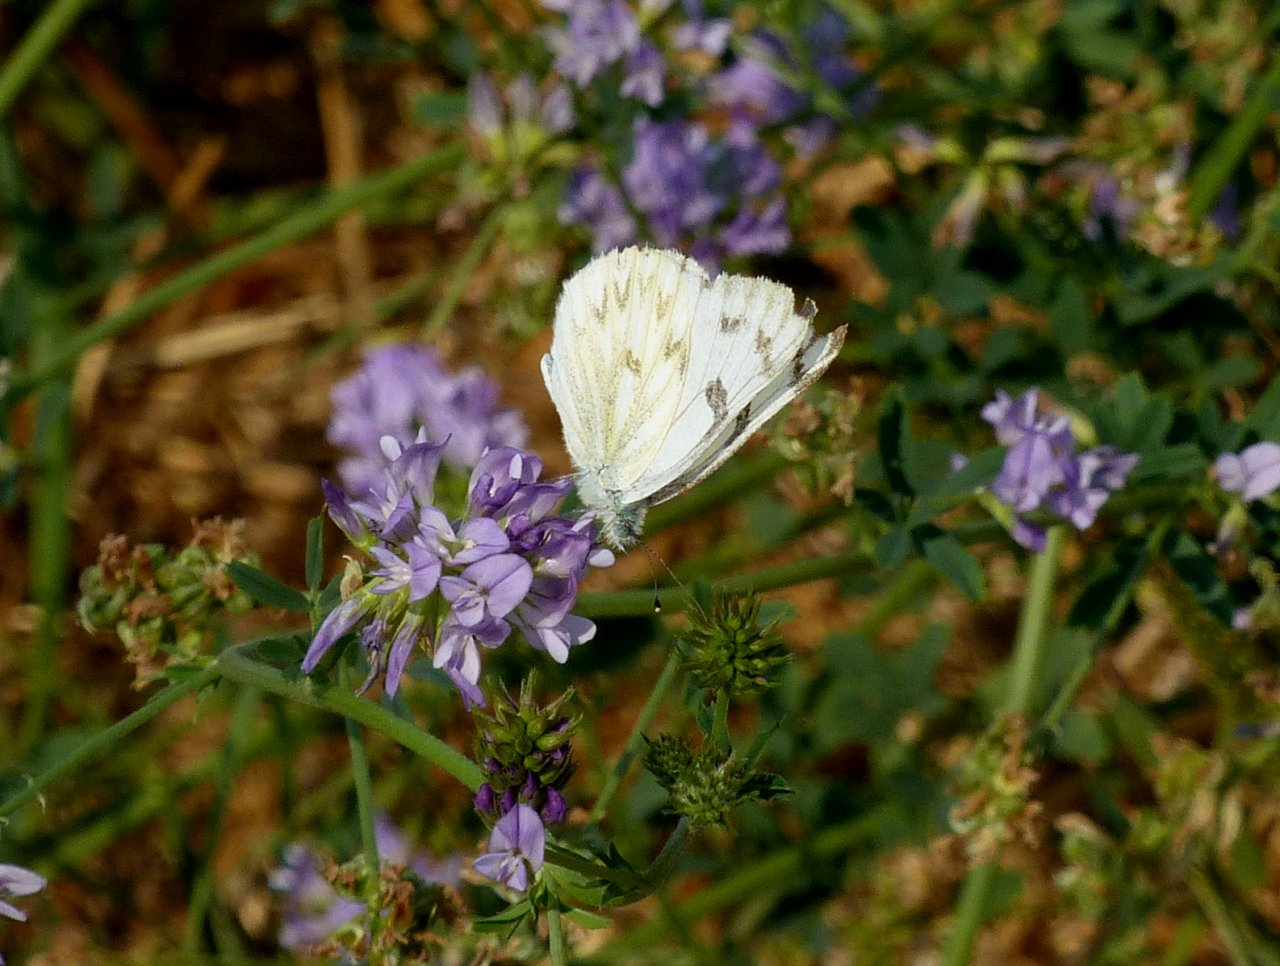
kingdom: Animalia
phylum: Arthropoda
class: Insecta
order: Lepidoptera
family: Pieridae
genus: Pontia
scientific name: Pontia occidentalis
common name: Western White
